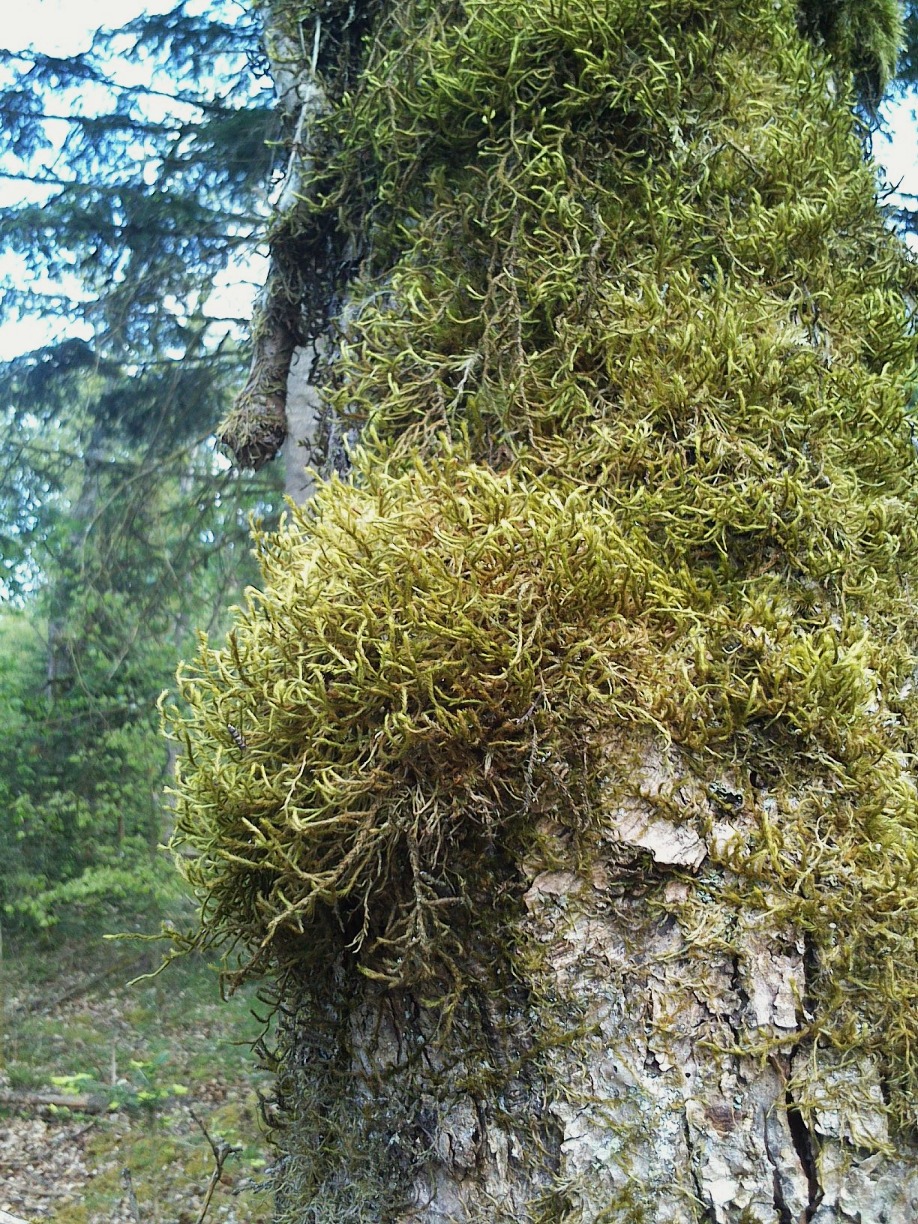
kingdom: Plantae
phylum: Bryophyta
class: Bryopsida
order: Hypnales
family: Antitrichiaceae
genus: Antitrichia
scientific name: Antitrichia curtipendula
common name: Åben krogtand
